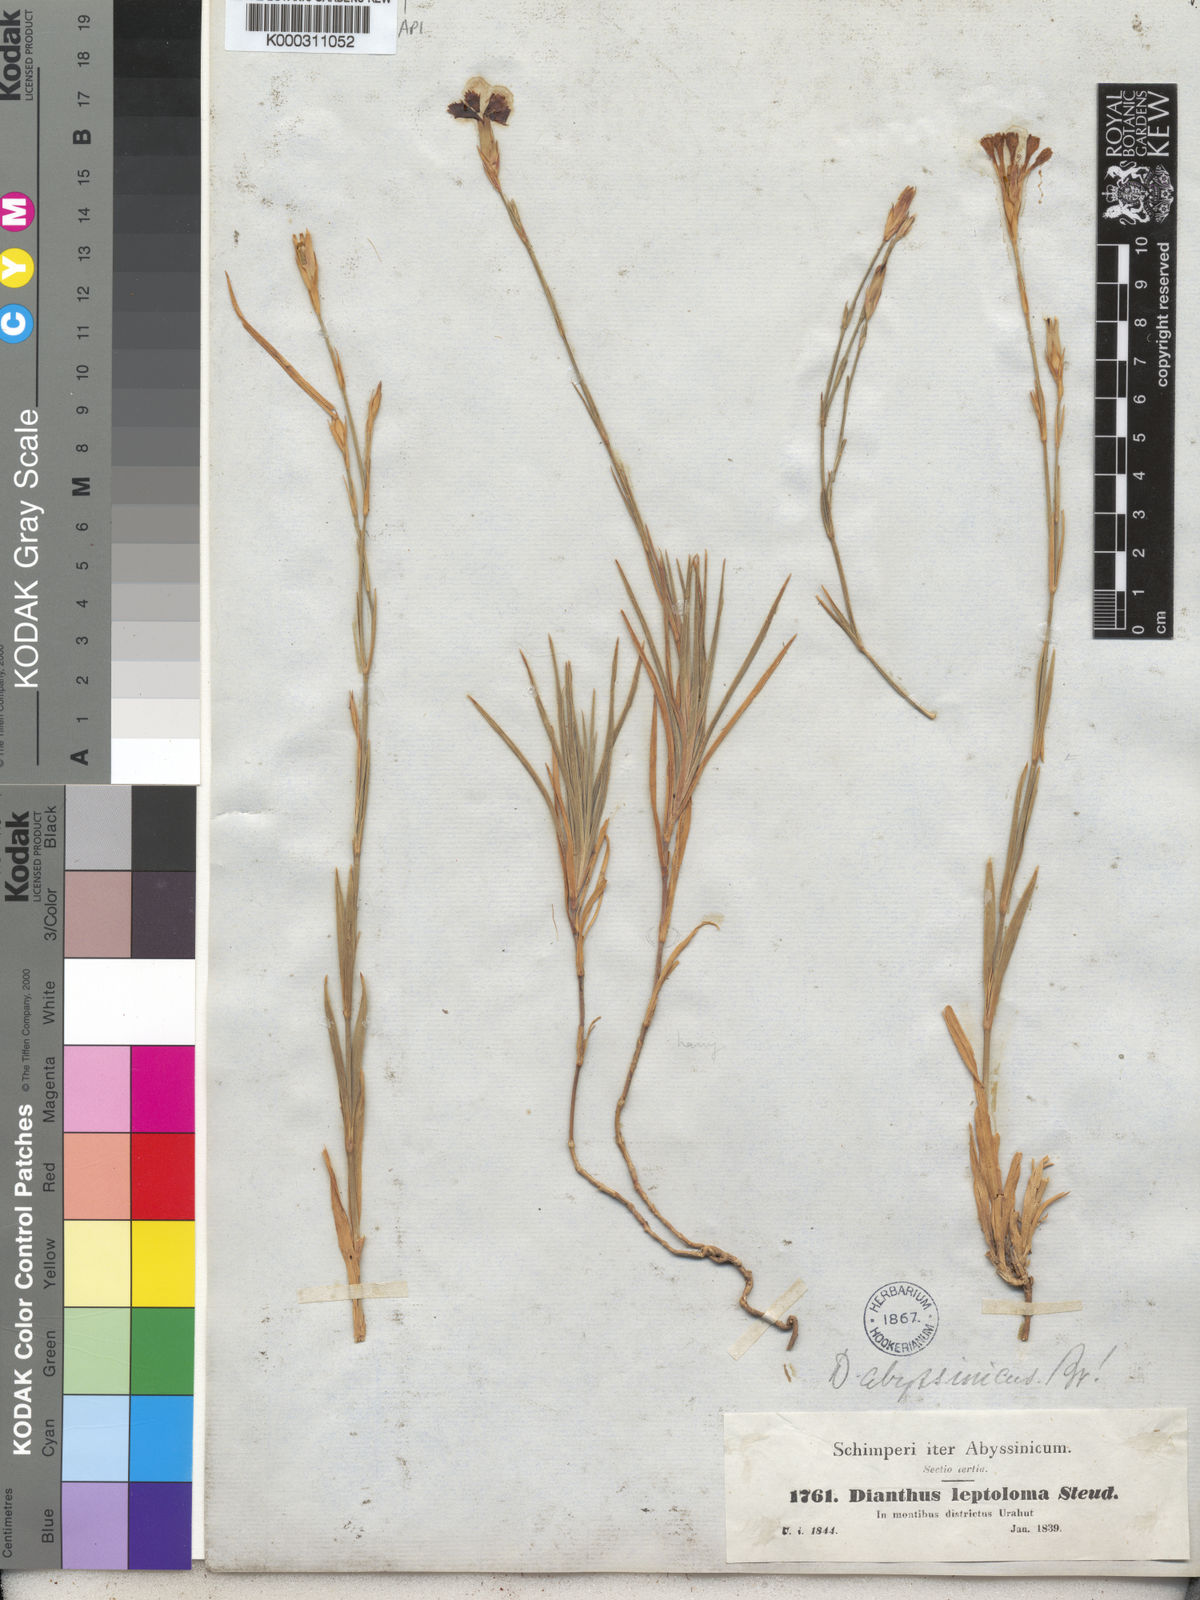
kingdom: Plantae
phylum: Tracheophyta
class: Magnoliopsida
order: Caryophyllales
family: Caryophyllaceae
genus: Dianthus
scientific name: Dianthus leptoloma
